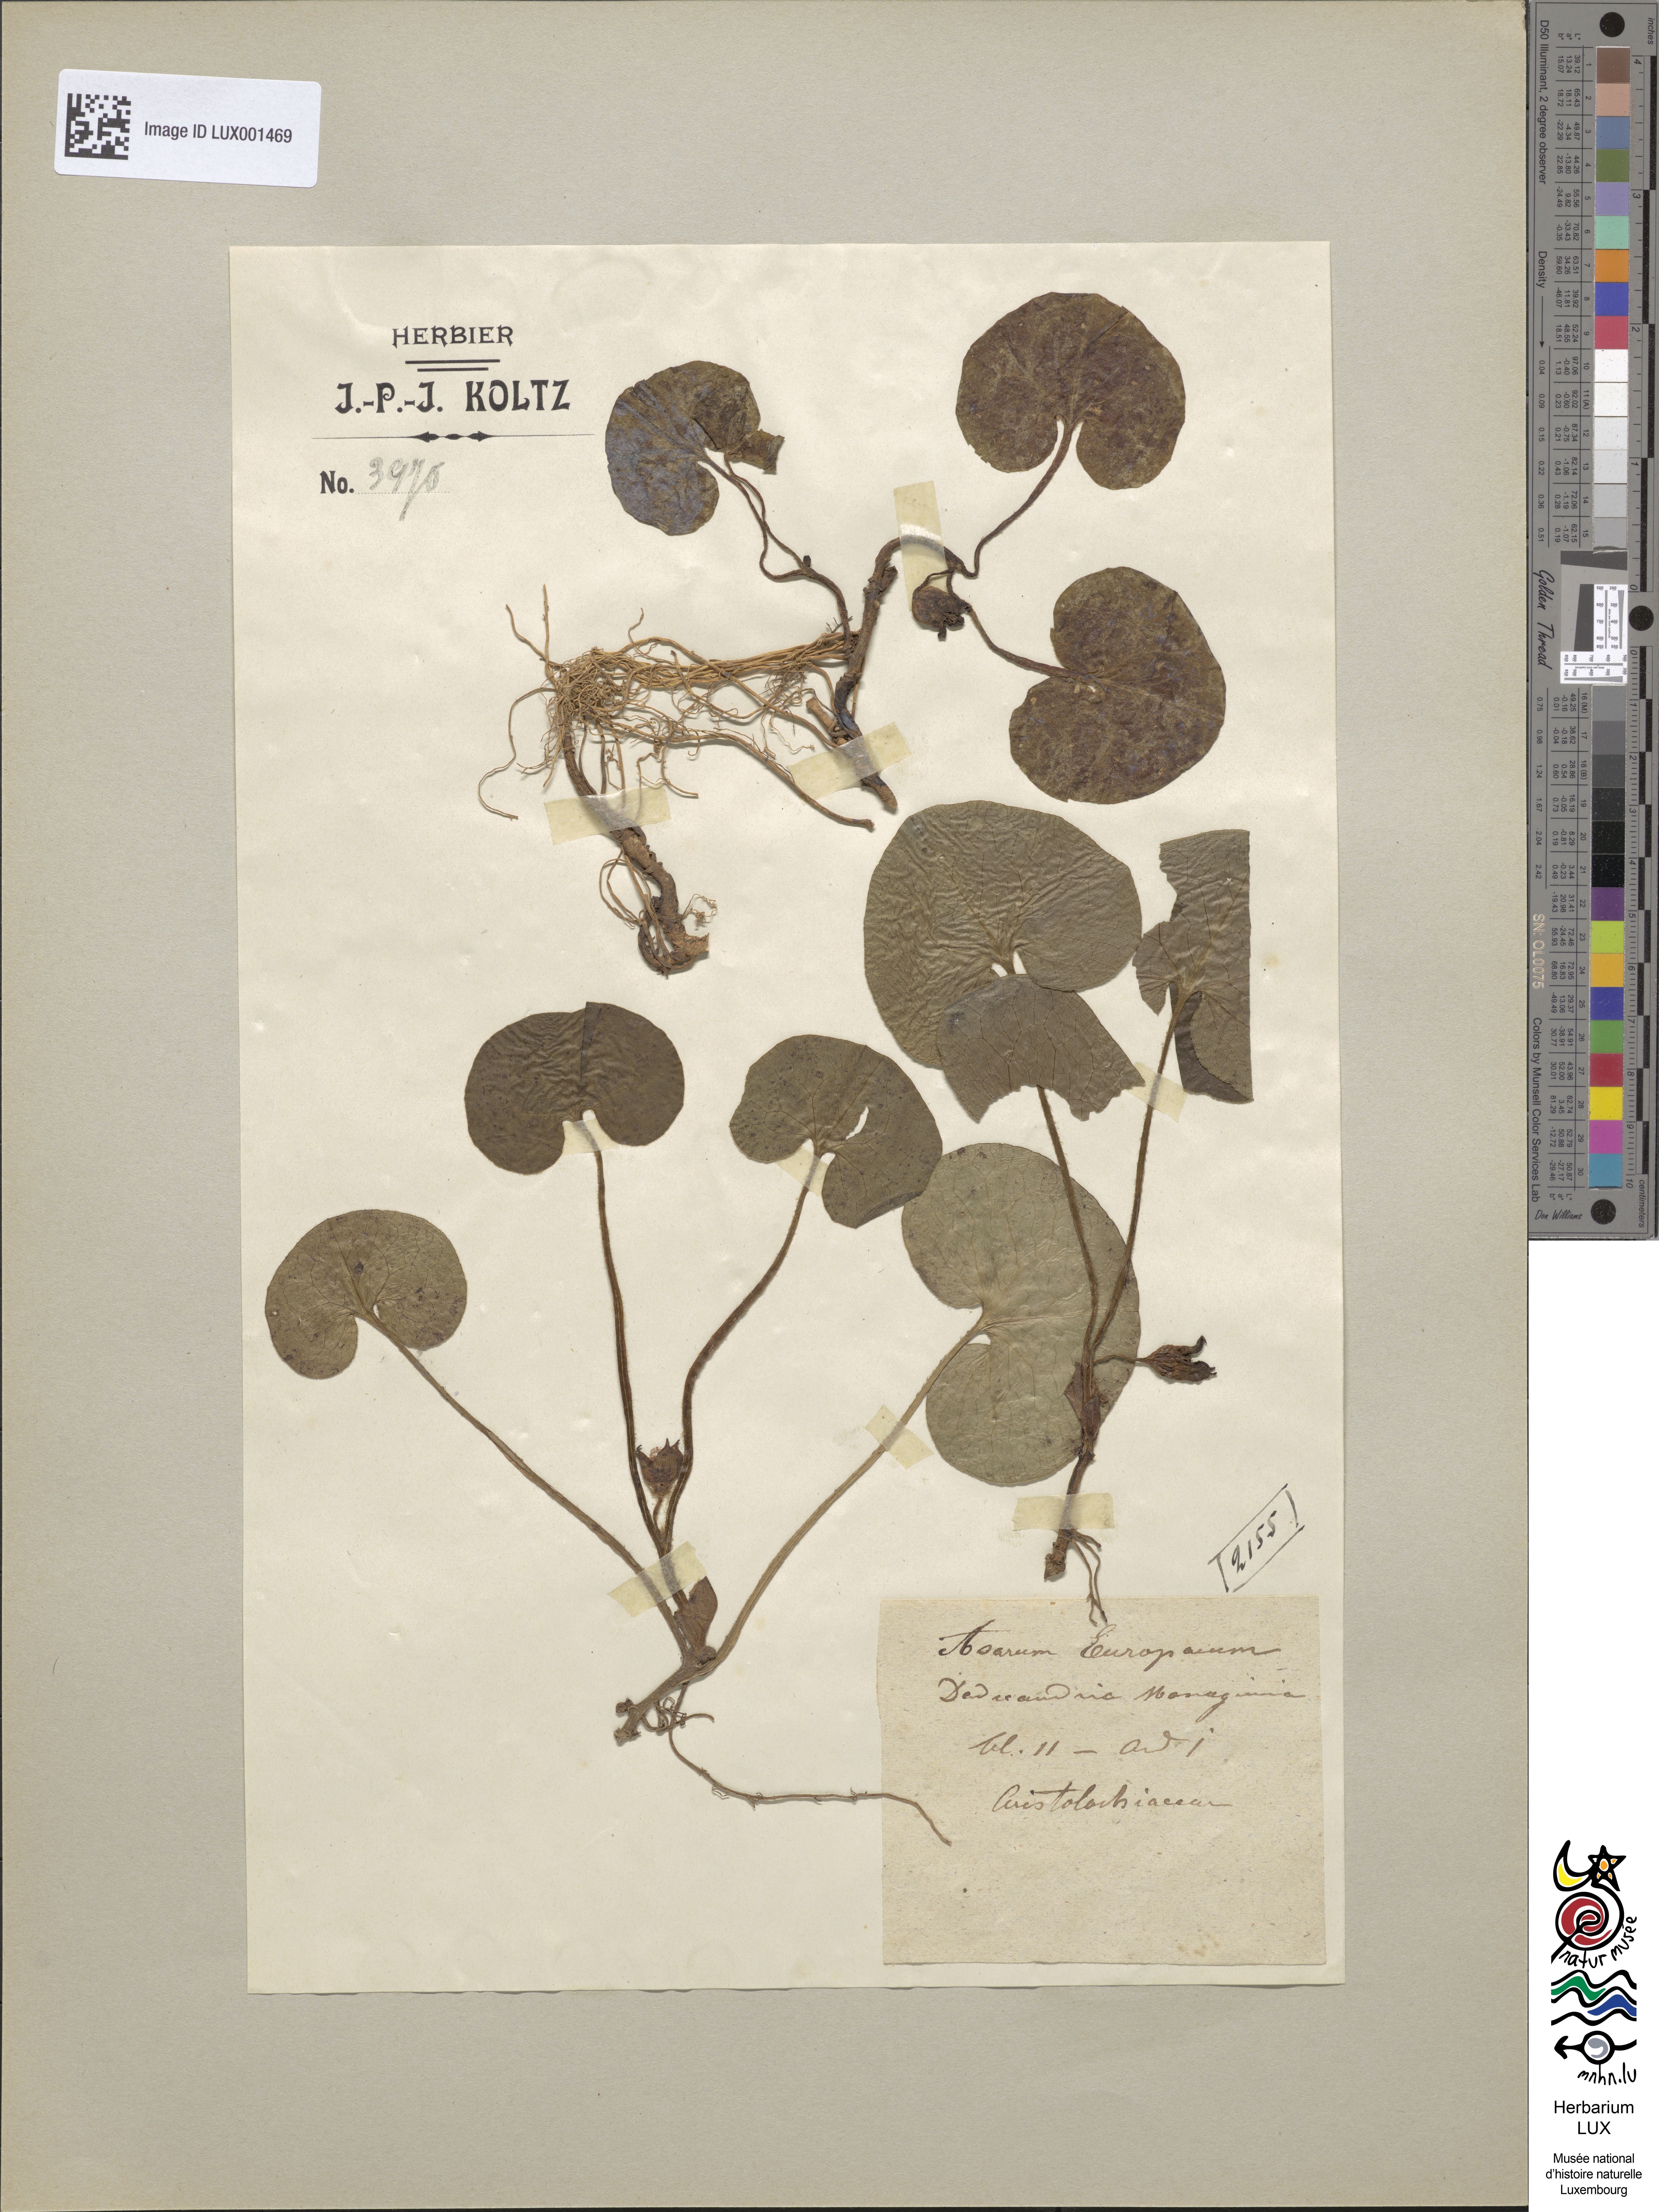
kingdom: Plantae
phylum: Tracheophyta
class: Magnoliopsida
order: Piperales
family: Aristolochiaceae
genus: Asarum
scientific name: Asarum europaeum
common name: Asarabacca
